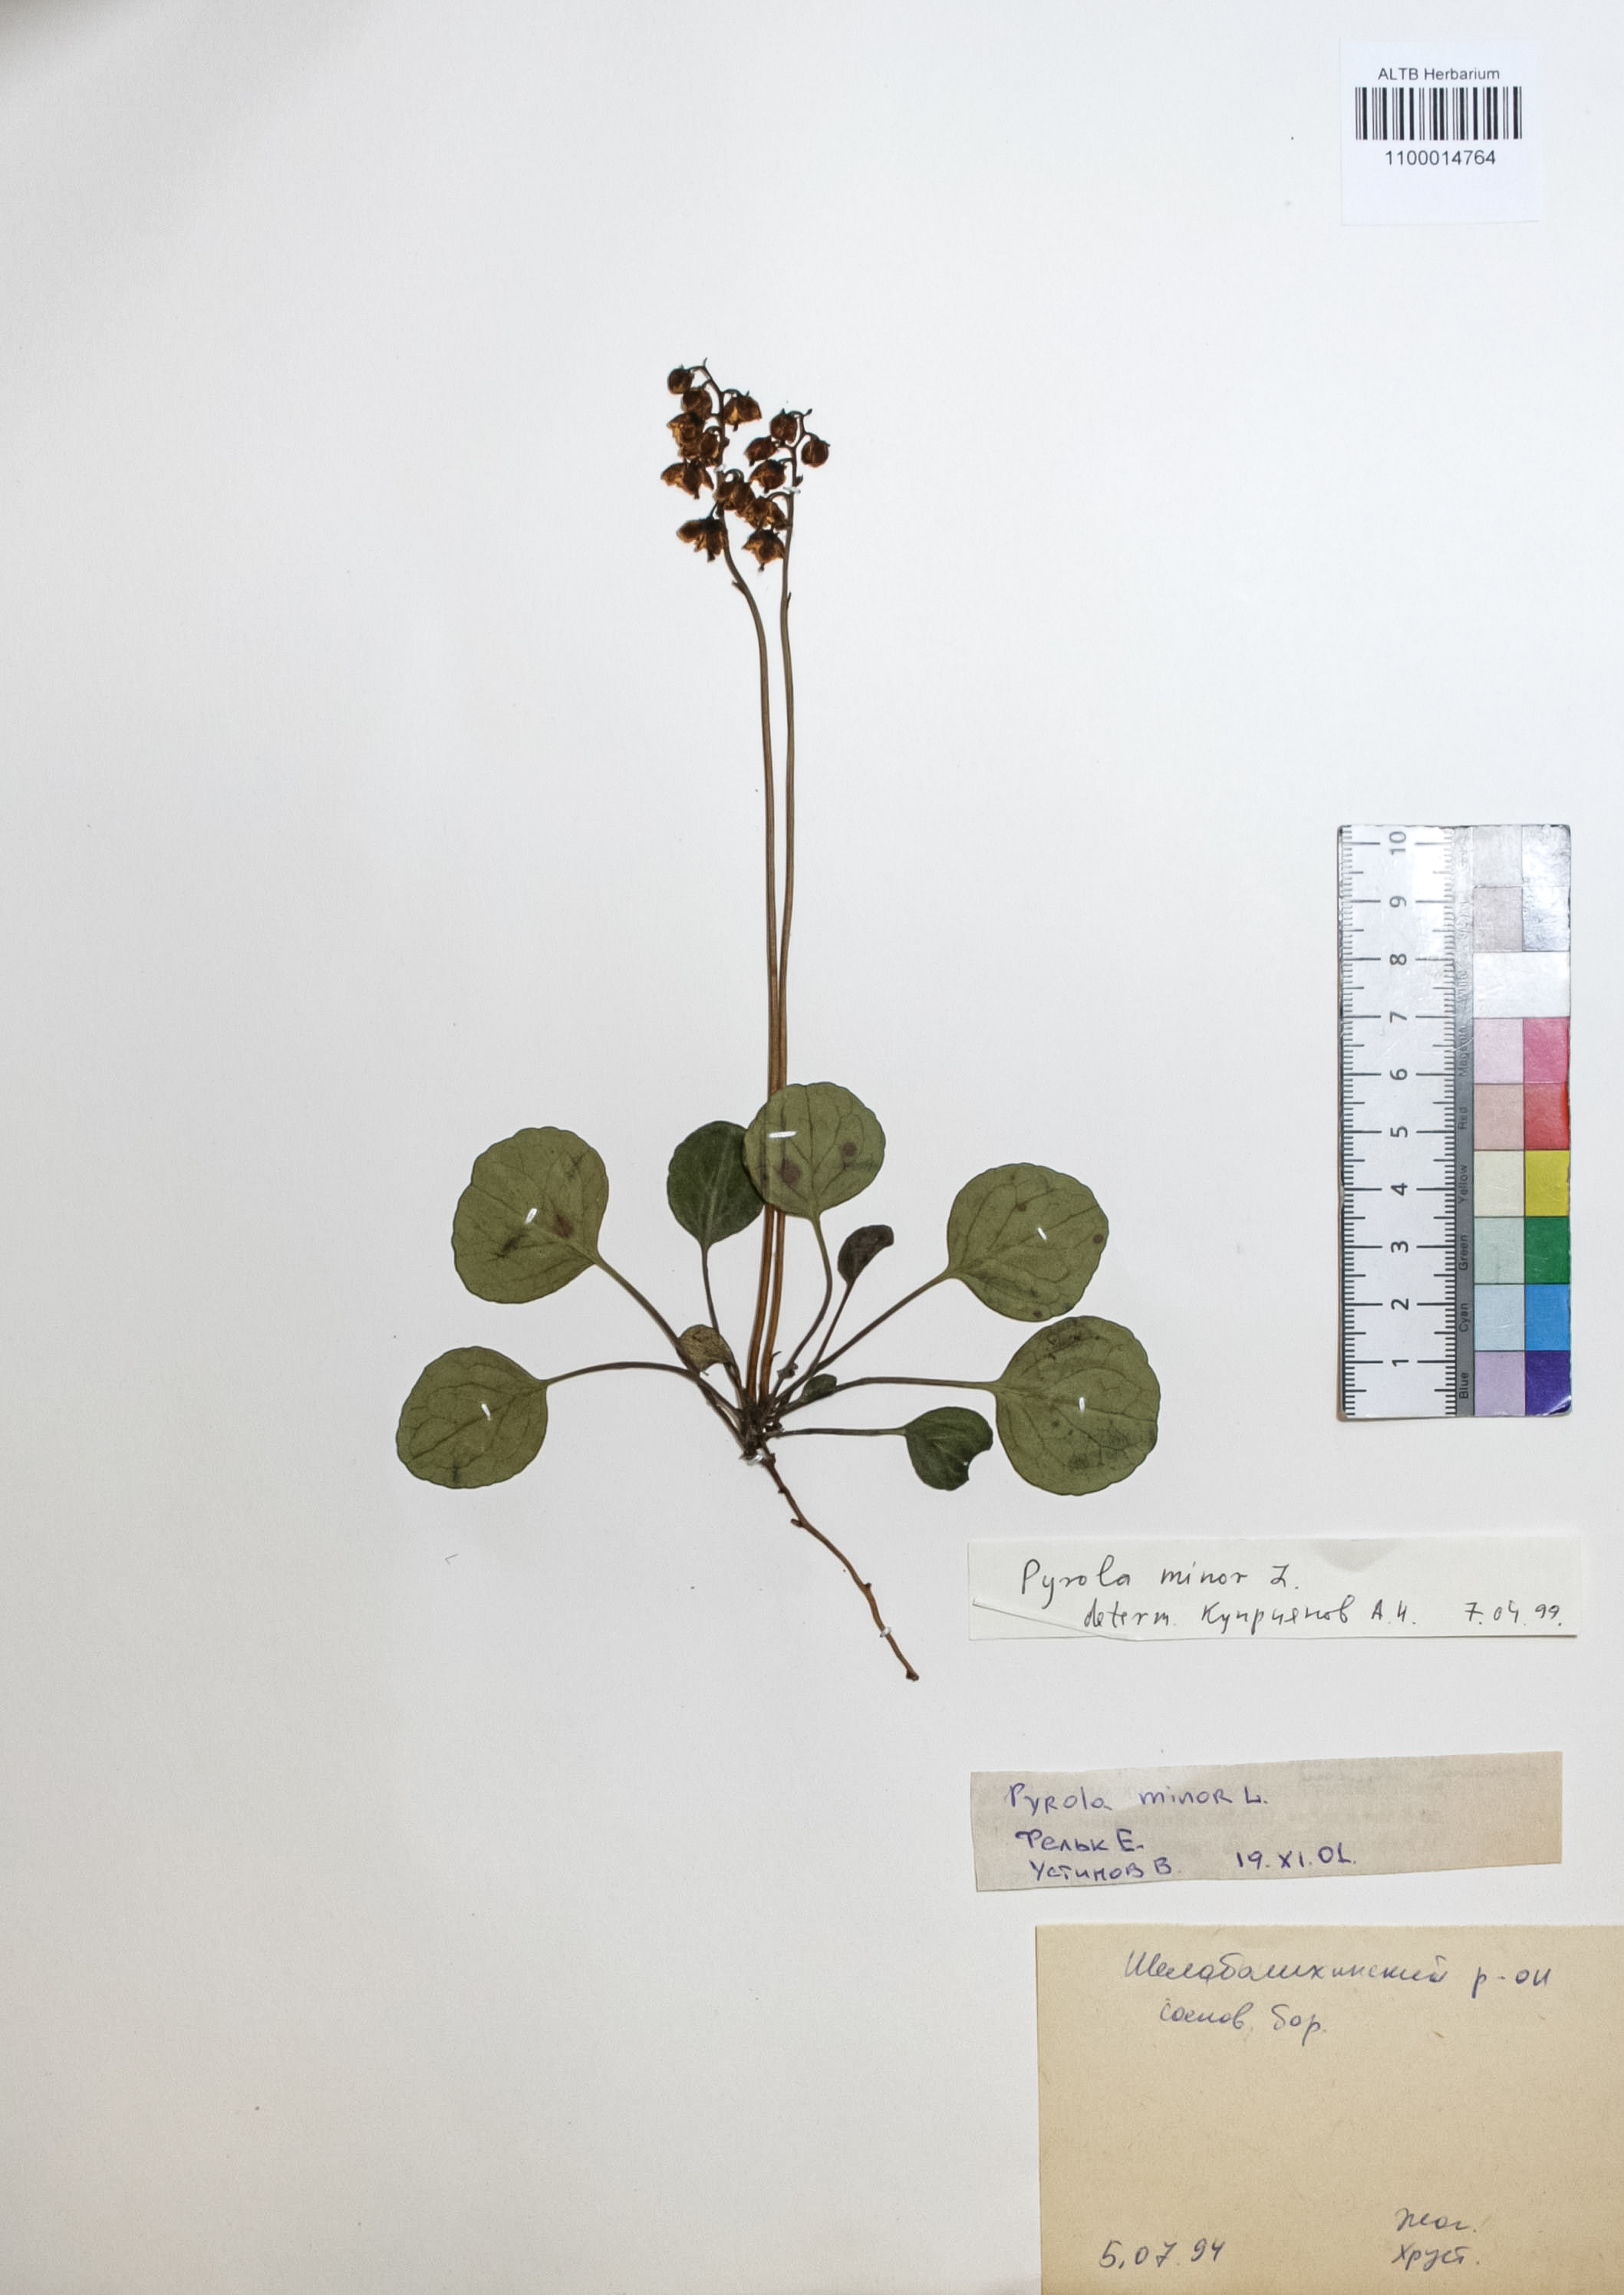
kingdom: Plantae
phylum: Tracheophyta
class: Magnoliopsida
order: Ericales
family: Ericaceae
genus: Pyrola
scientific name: Pyrola minor
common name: Common wintergreen
